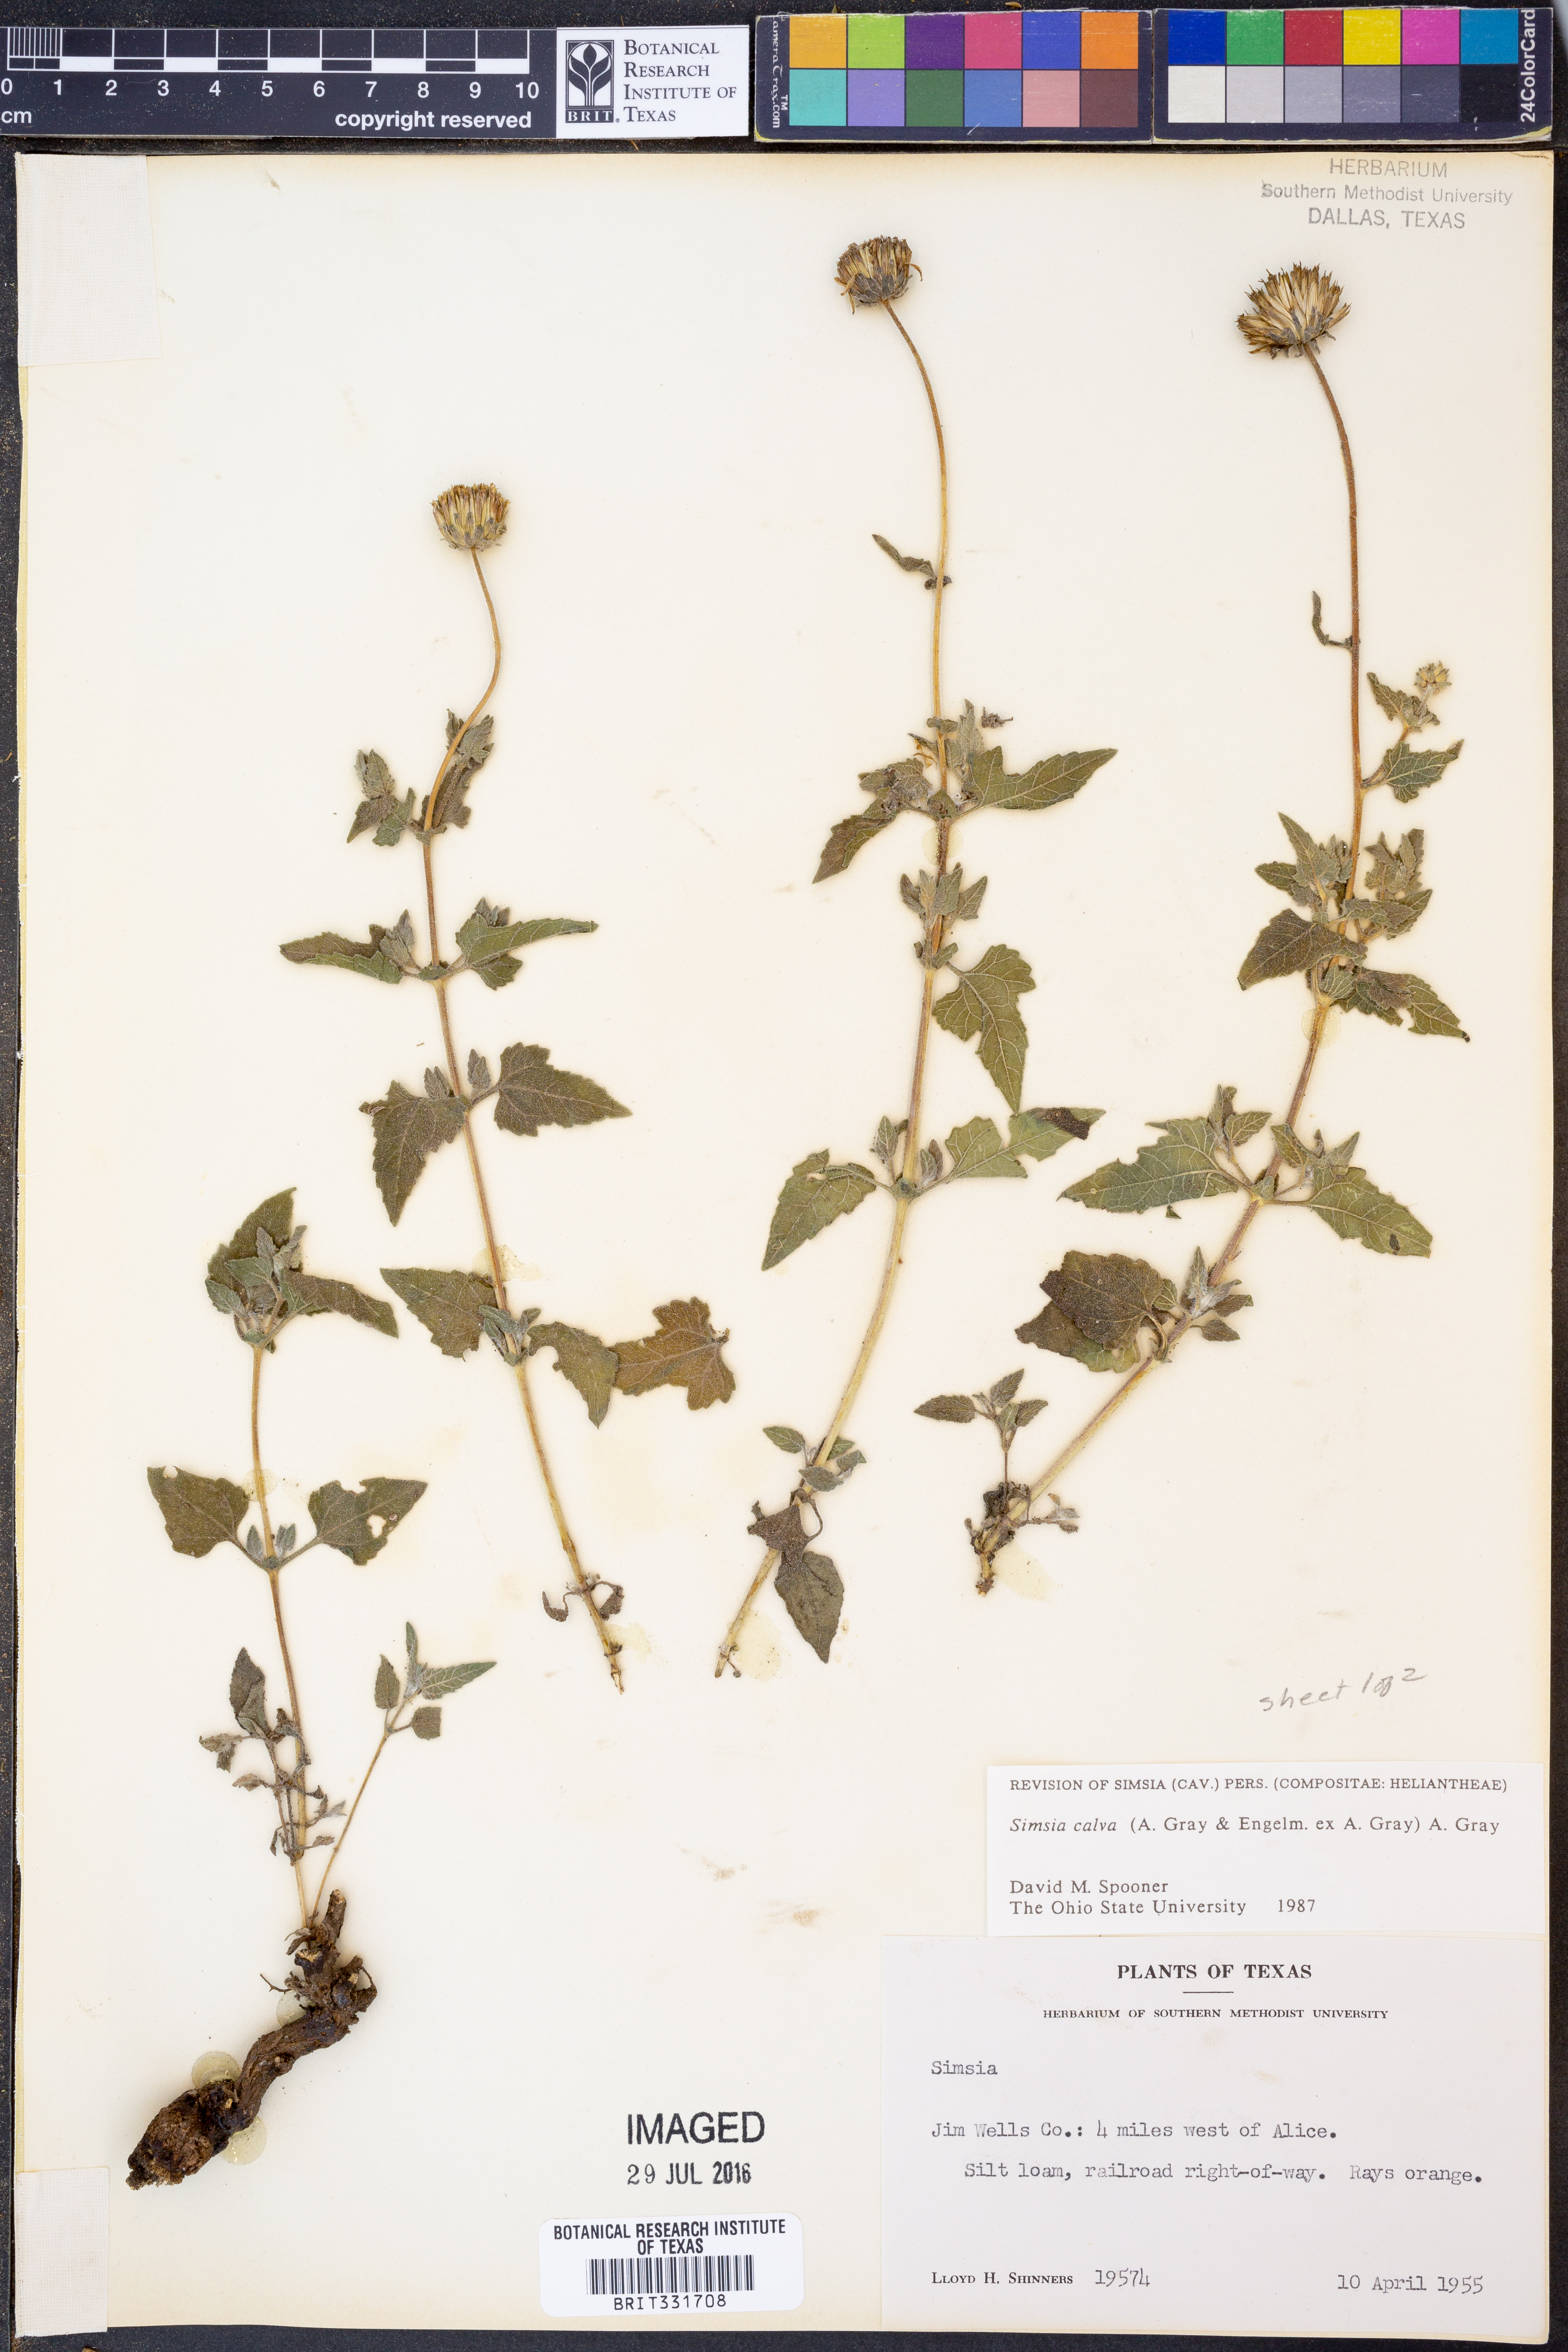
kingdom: Plantae
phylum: Tracheophyta
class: Magnoliopsida
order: Asterales
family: Asteraceae
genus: Simsia
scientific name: Simsia calva
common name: Awnless bush-sunflower
